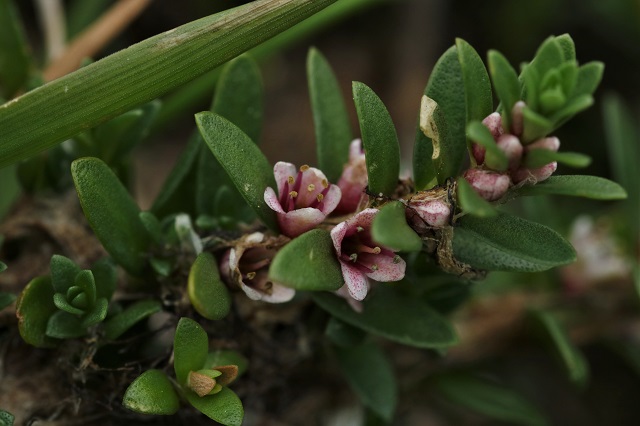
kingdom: Plantae
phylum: Tracheophyta
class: Magnoliopsida
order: Ericales
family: Primulaceae
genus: Lysimachia
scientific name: Lysimachia maritima
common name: Sandkryb
